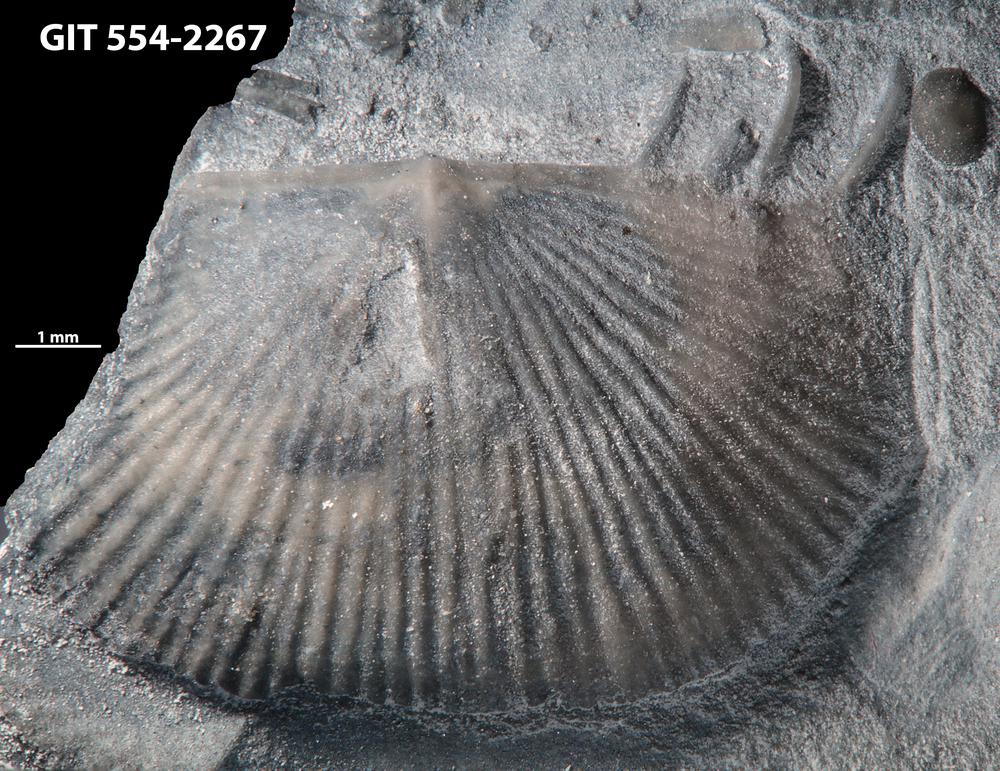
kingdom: Animalia
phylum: Brachiopoda
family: Strophochonetidae
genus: Protochonetes
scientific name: Protochonetes Orthis striatella
